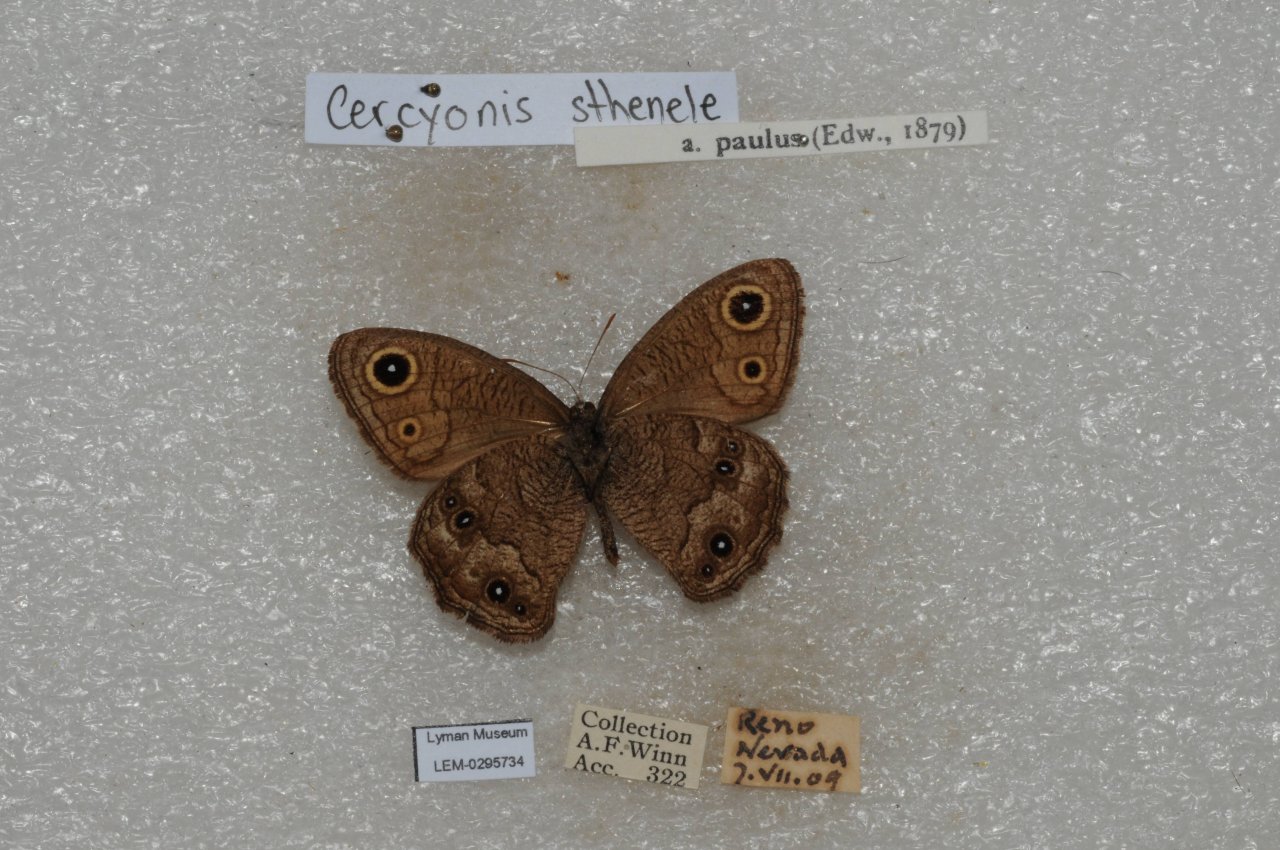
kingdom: Animalia
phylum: Arthropoda
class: Insecta
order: Lepidoptera
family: Nymphalidae
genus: Cercyonis
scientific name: Cercyonis sthenele
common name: Great Basin Wood-Nymph
